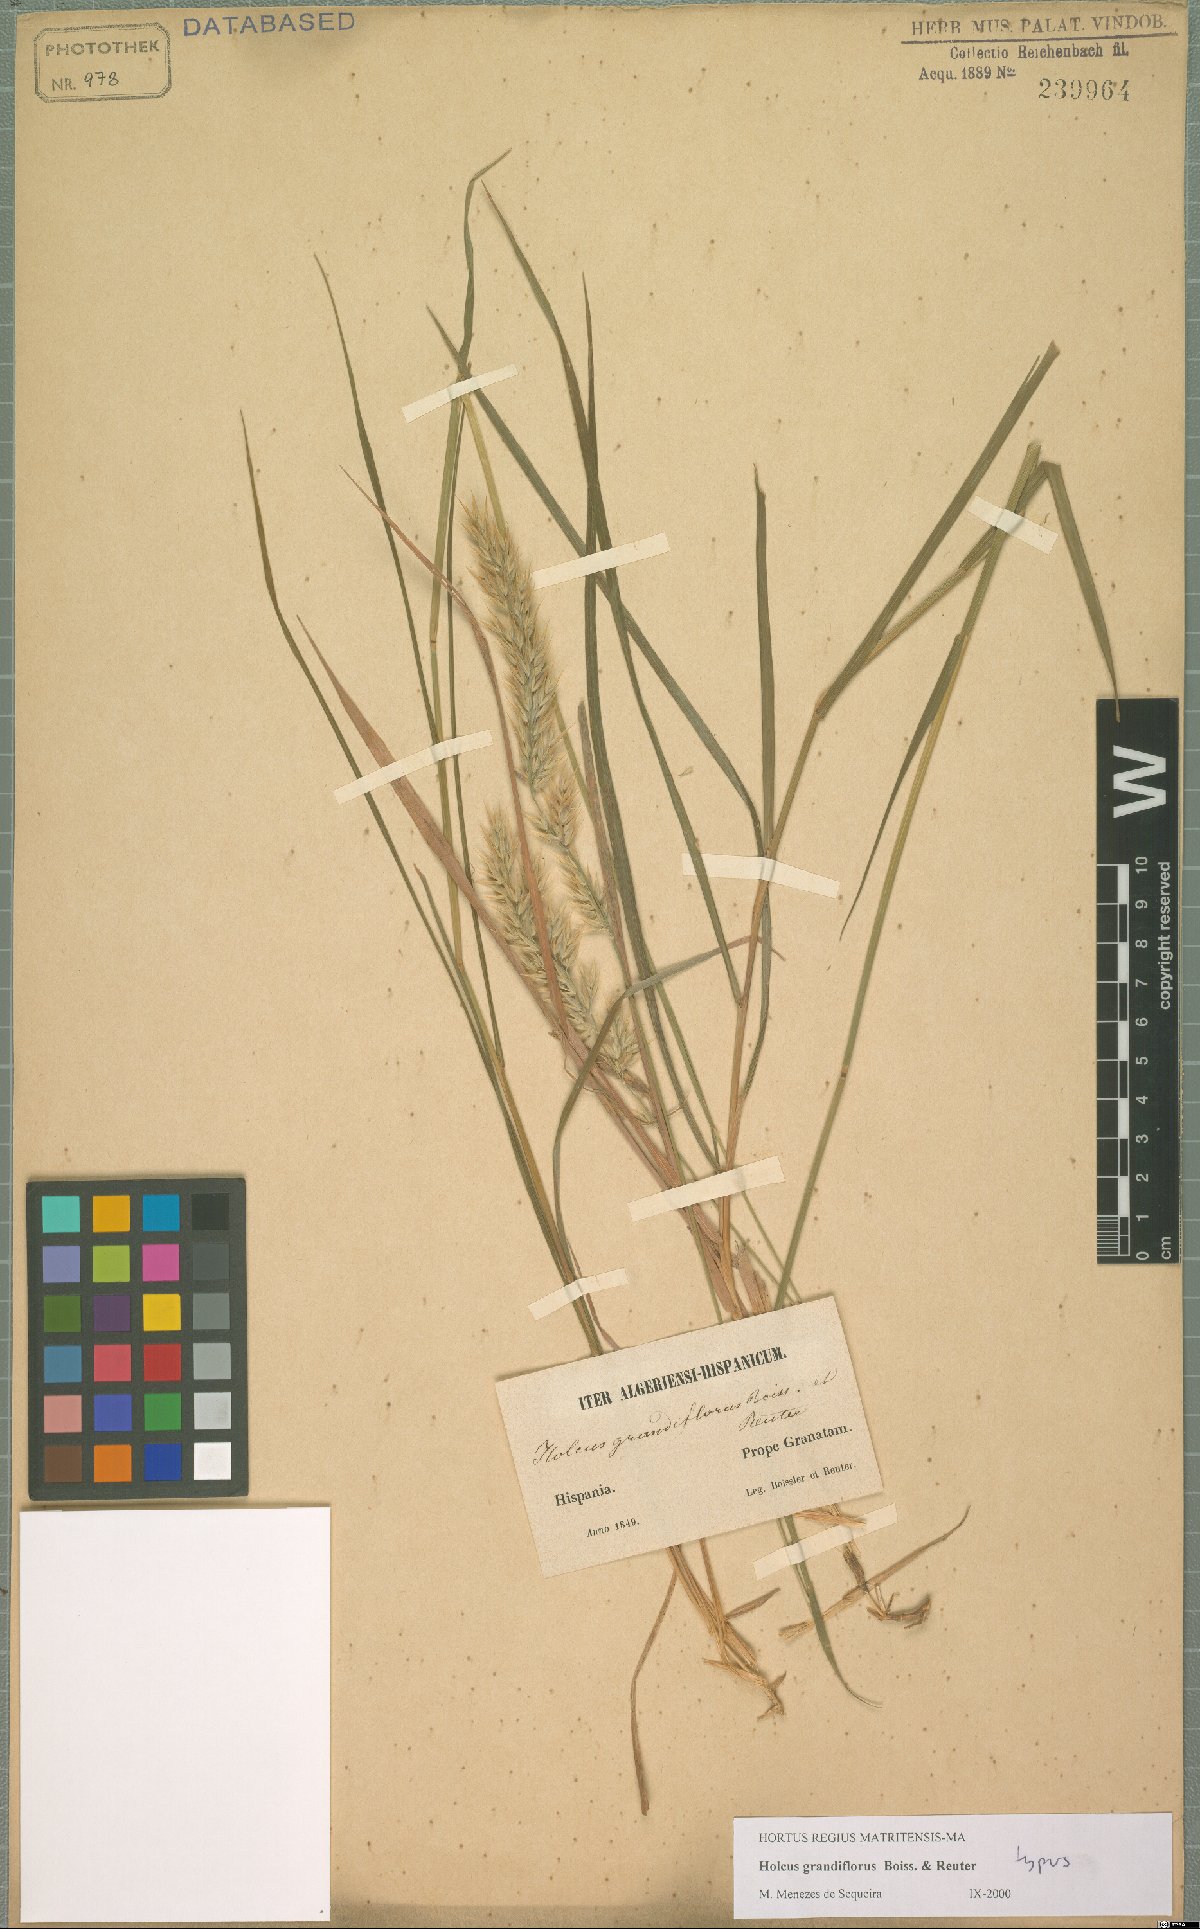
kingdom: Plantae
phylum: Tracheophyta
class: Liliopsida
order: Poales
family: Poaceae
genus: Holcus
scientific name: Holcus grandiflorus
